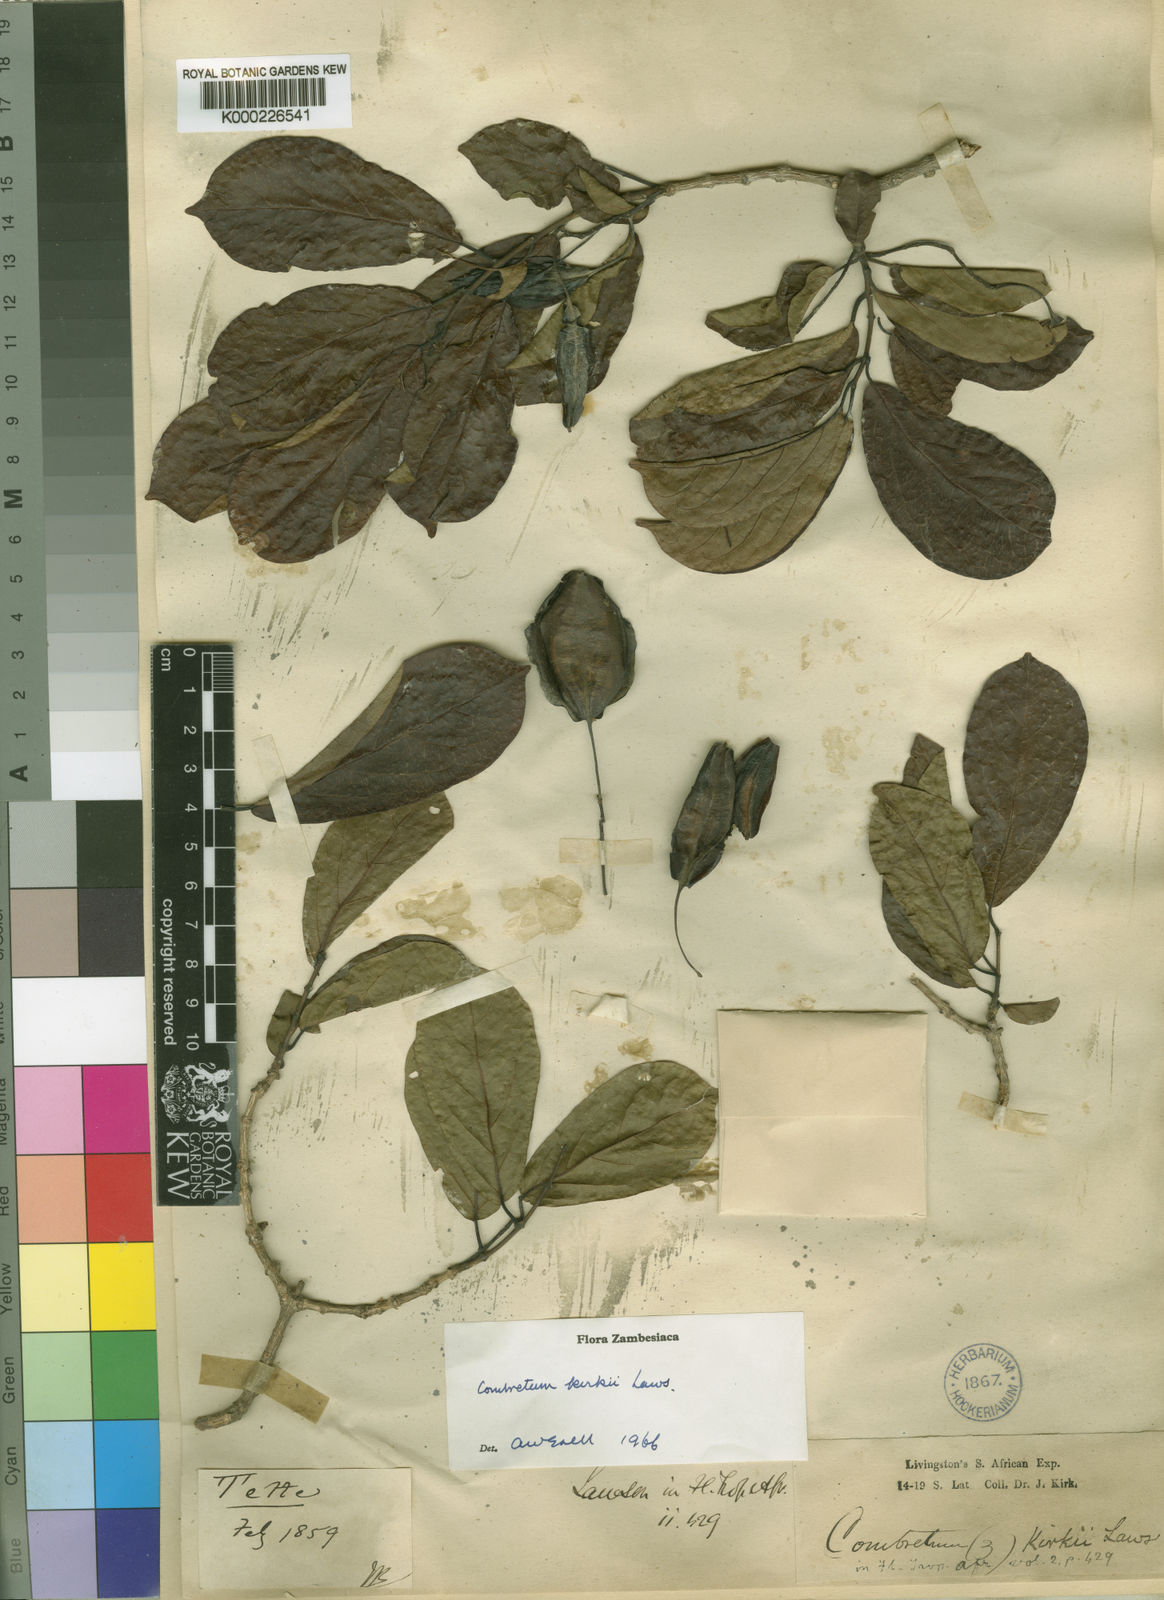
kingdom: Plantae
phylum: Tracheophyta
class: Magnoliopsida
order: Myrtales
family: Combretaceae
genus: Combretum
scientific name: Combretum kirkii
